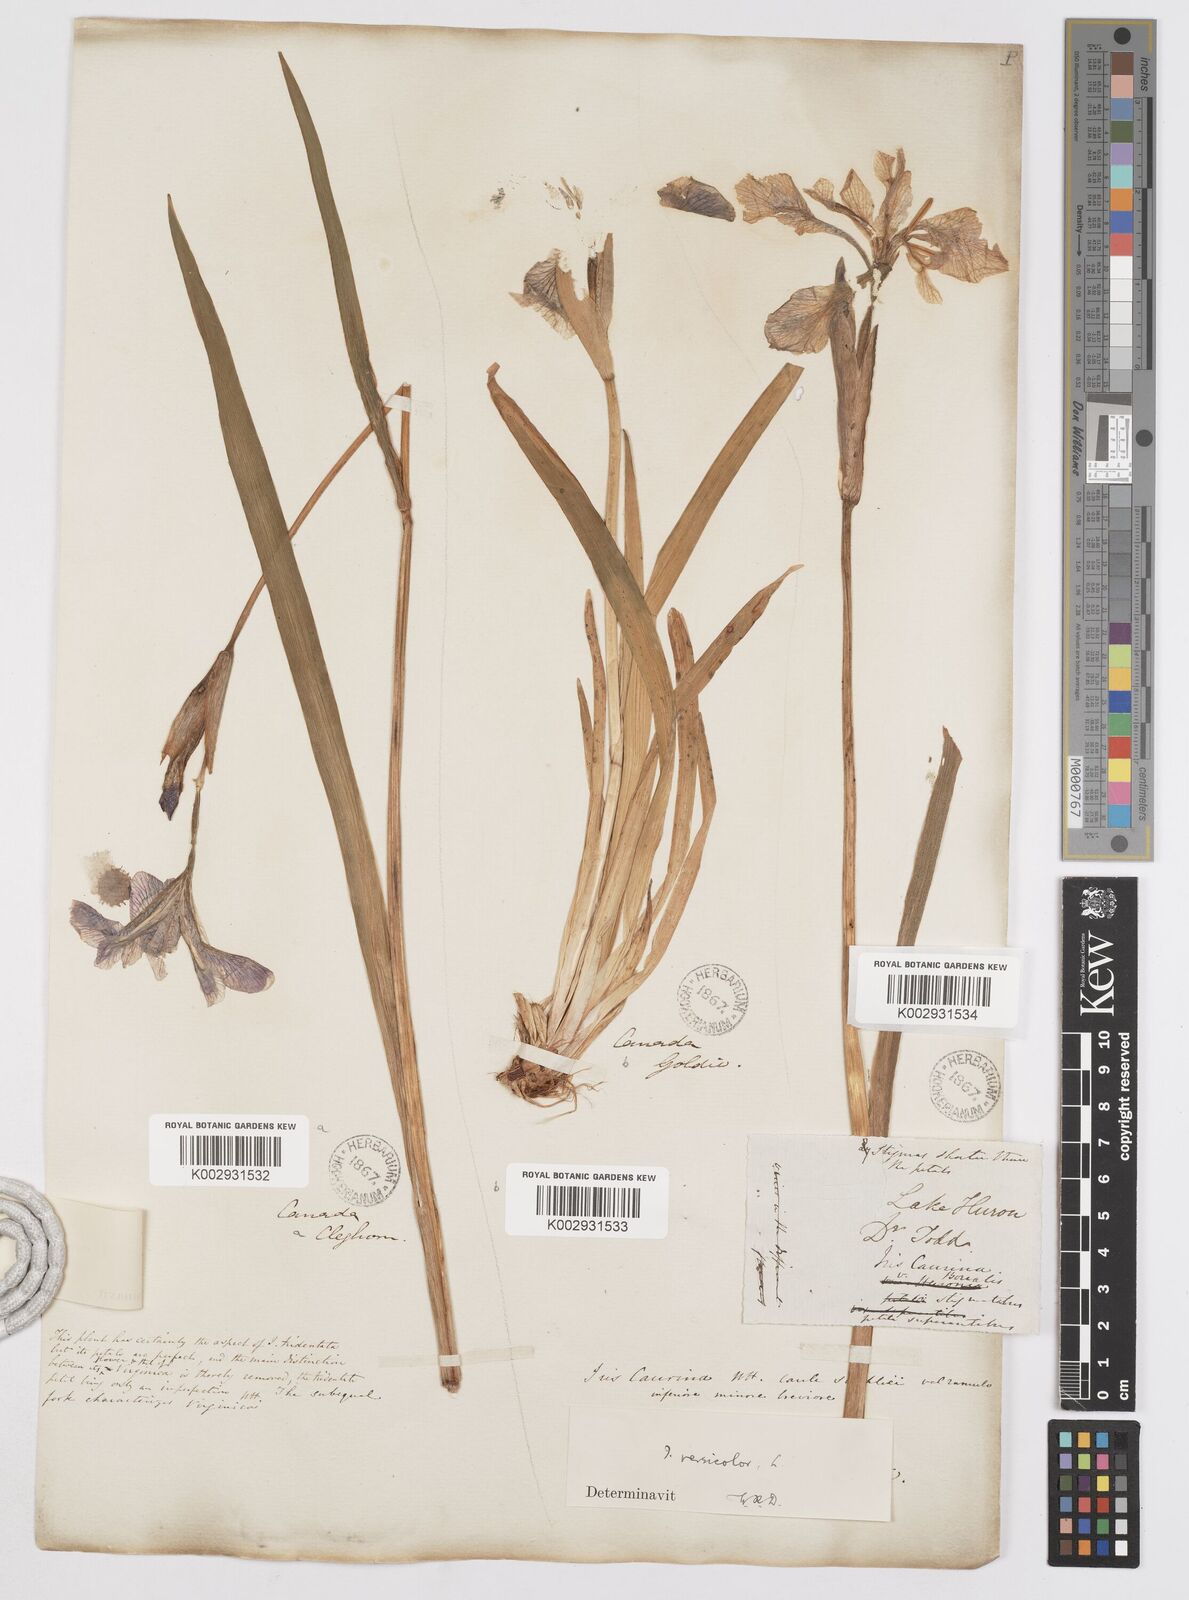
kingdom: Plantae
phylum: Tracheophyta
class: Liliopsida
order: Asparagales
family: Iridaceae
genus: Iris
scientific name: Iris versicolor
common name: Purple iris
